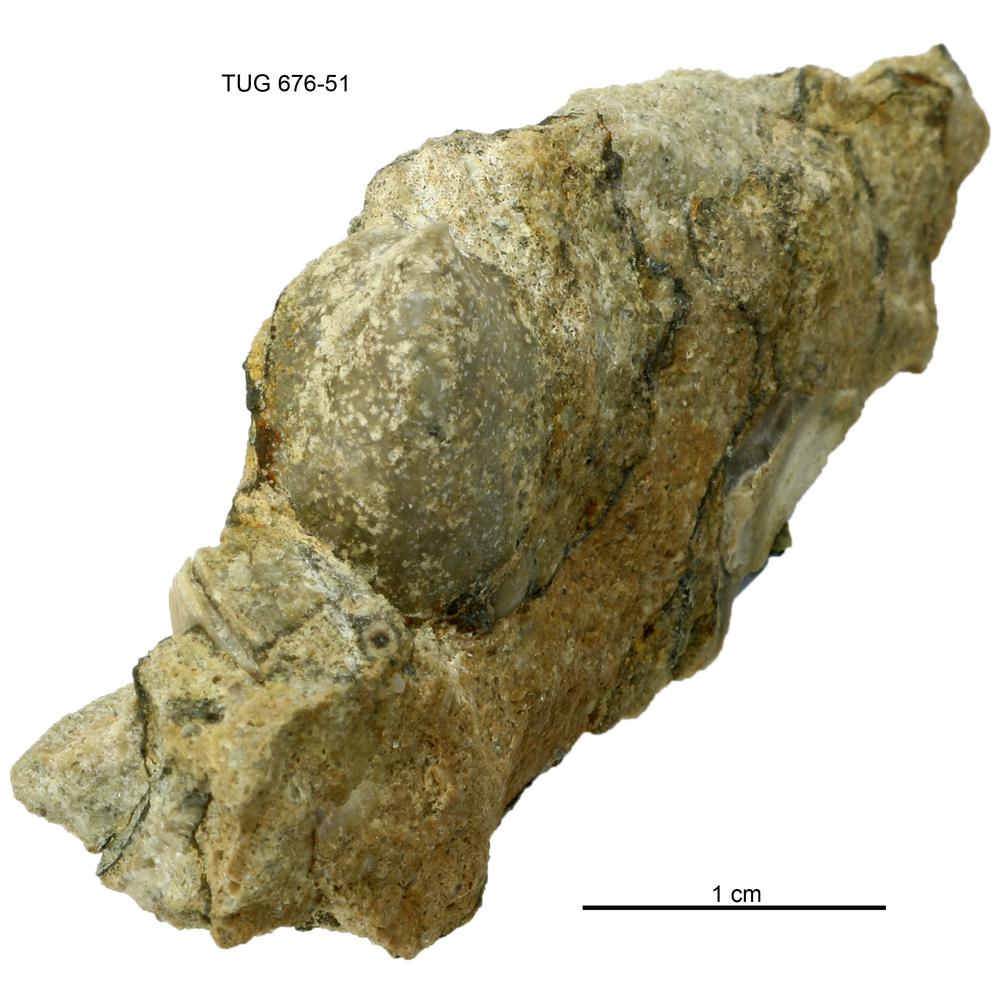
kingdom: Animalia
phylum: Mollusca
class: Gastropoda
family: Archinacellidae
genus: Archinacella
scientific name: Archinacella Metoptoma melissa
